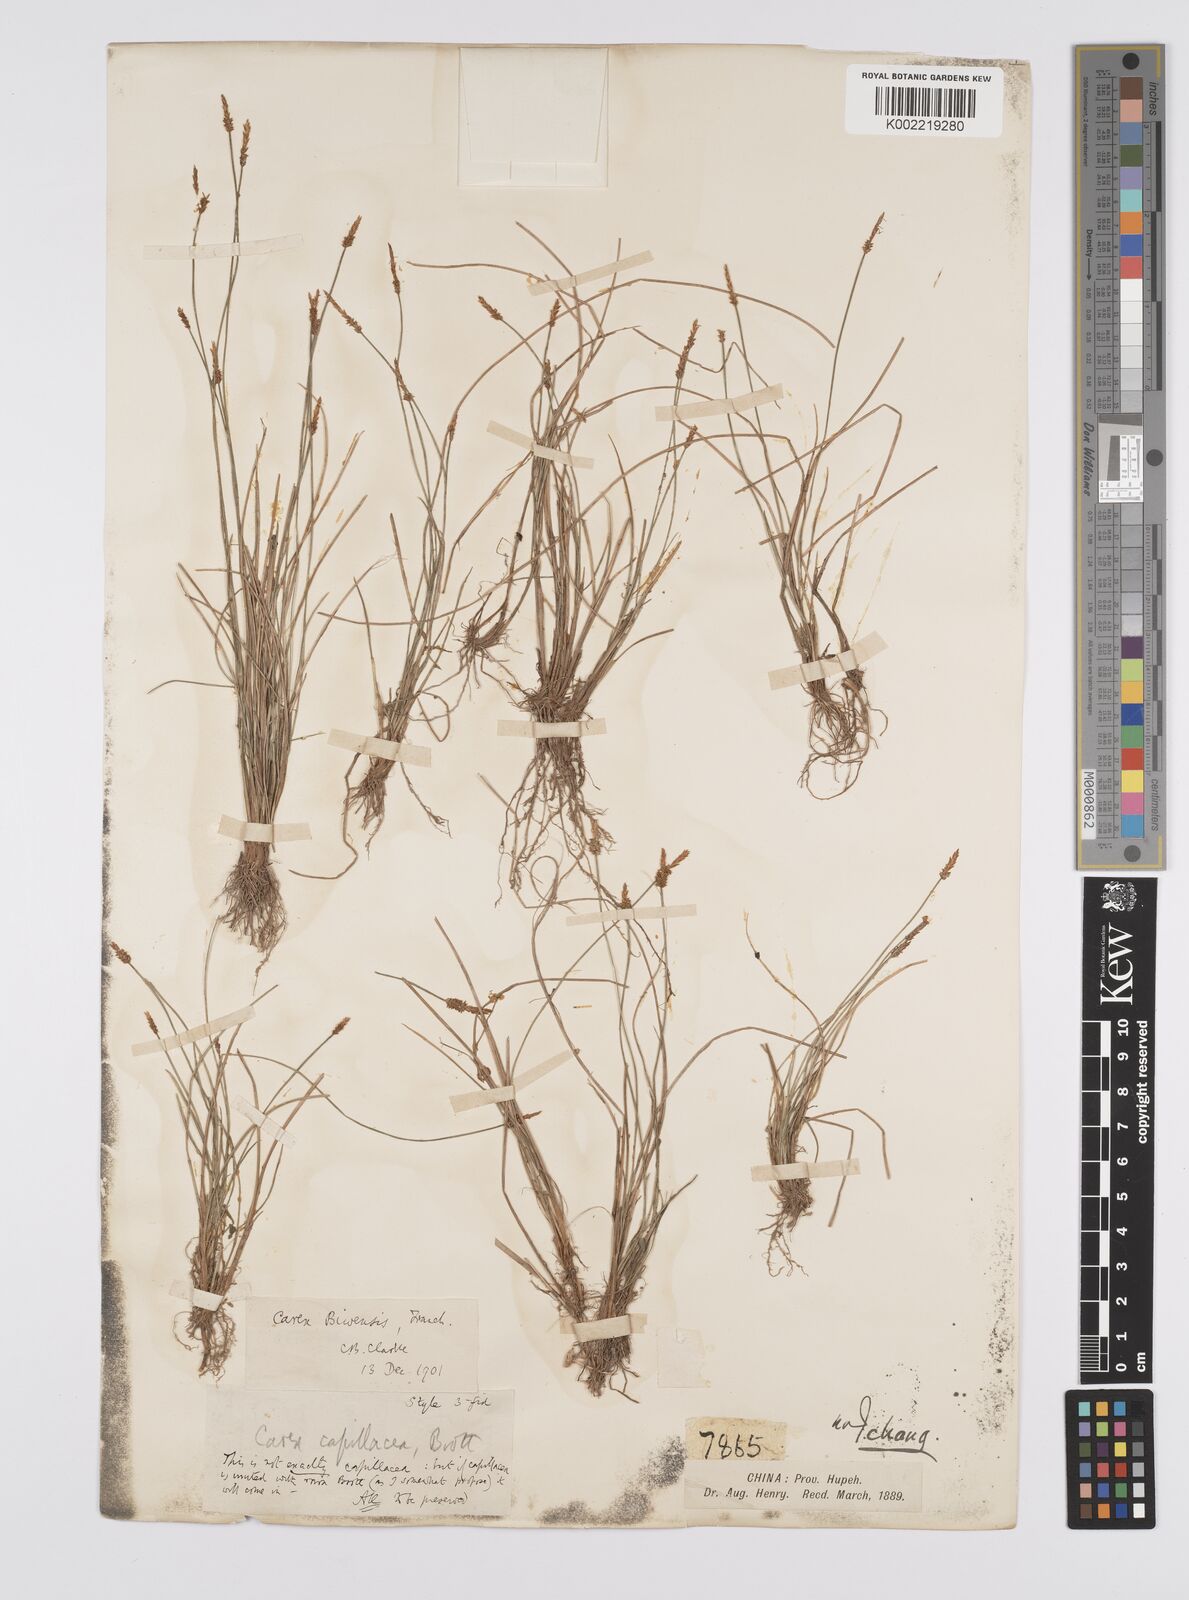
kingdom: Plantae
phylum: Tracheophyta
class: Liliopsida
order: Poales
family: Cyperaceae
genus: Carex
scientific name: Carex rara
